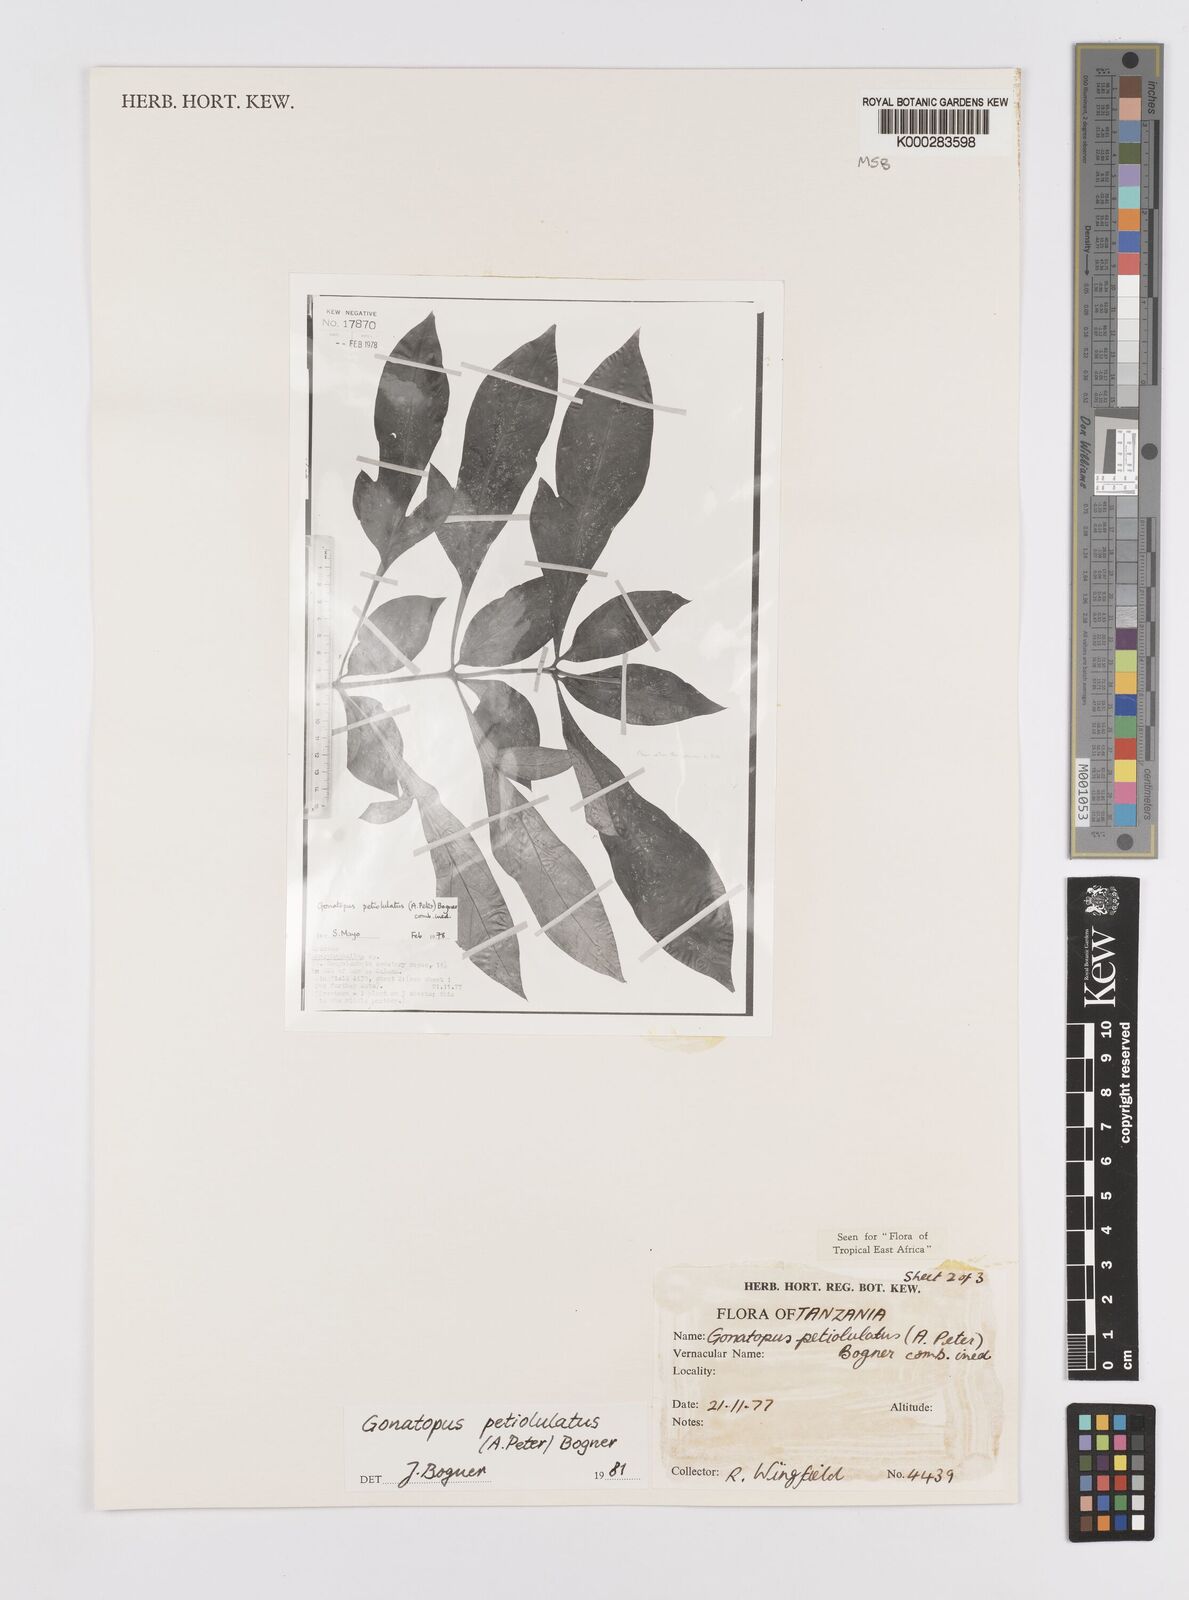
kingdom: Plantae
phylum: Tracheophyta
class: Liliopsida
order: Alismatales
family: Araceae
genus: Gonatopus
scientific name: Gonatopus petiolulatus
